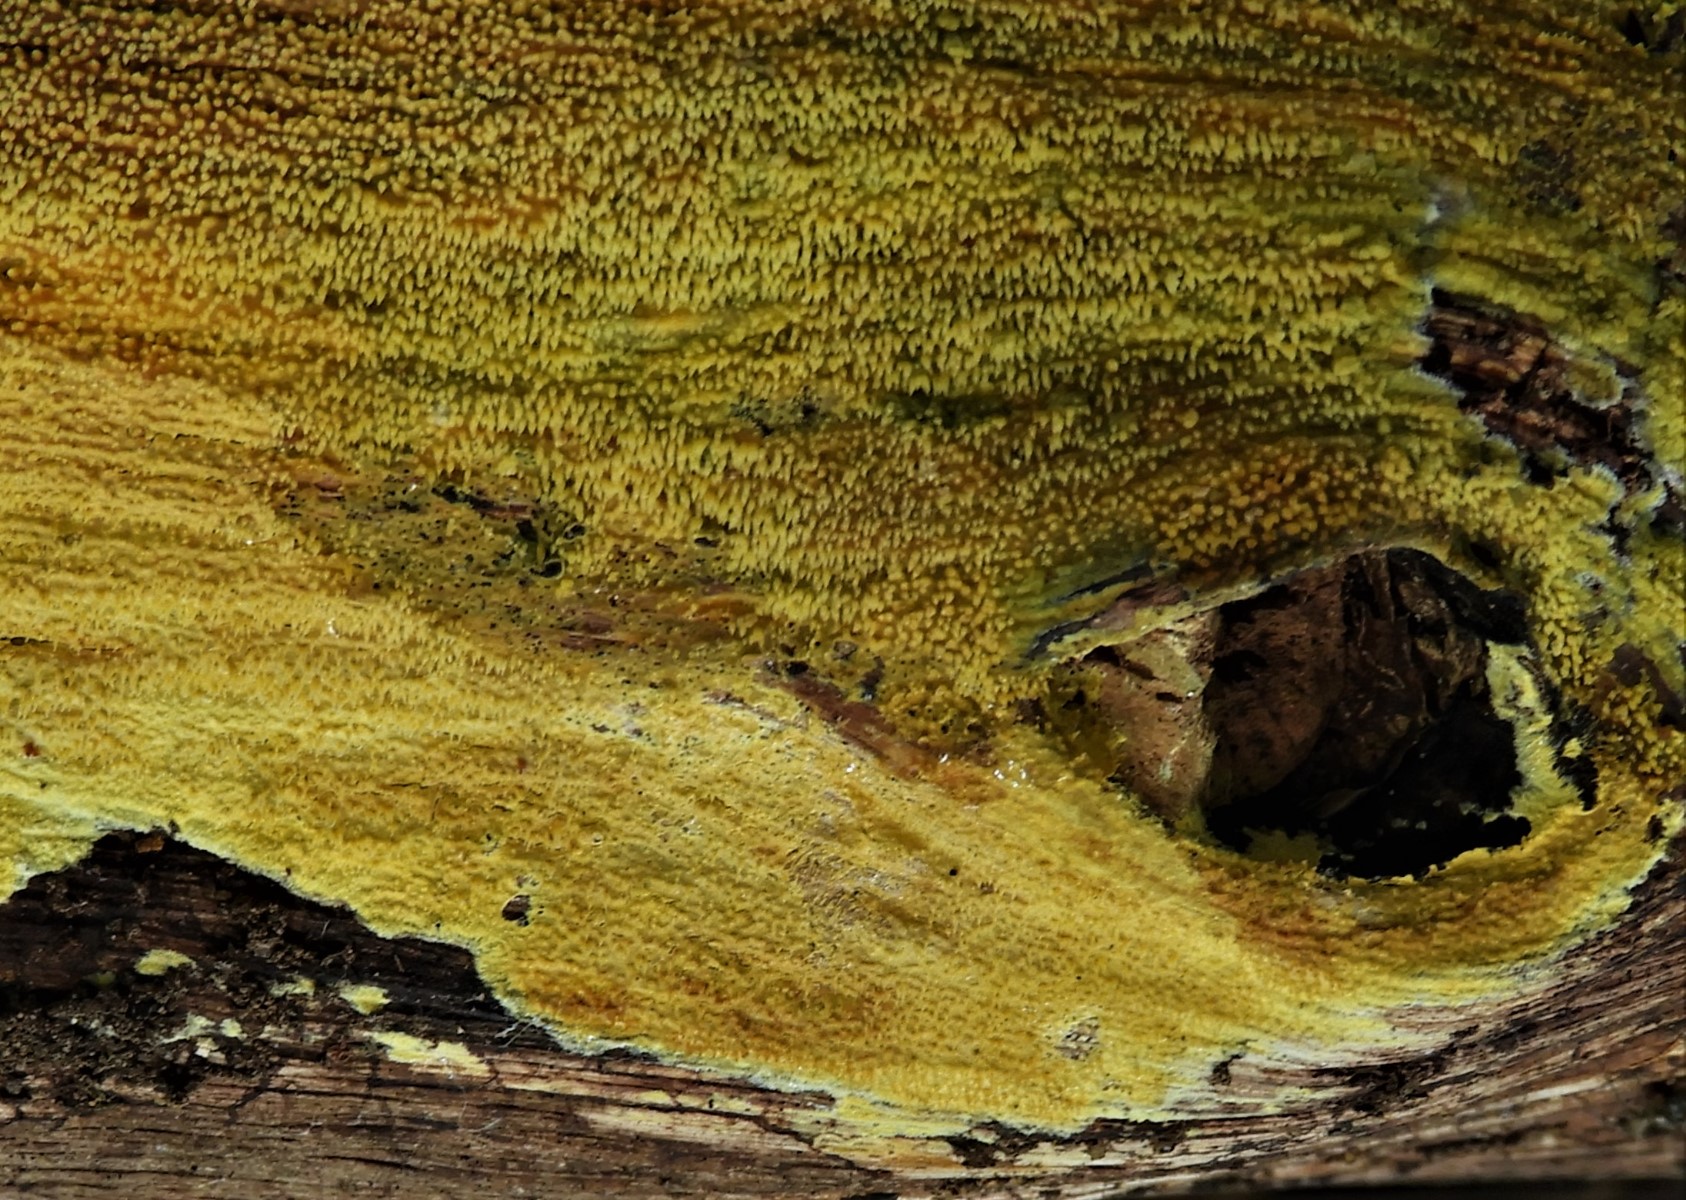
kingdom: Fungi
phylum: Basidiomycota
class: Agaricomycetes
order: Polyporales
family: Meruliaceae
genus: Mycoacia
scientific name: Mycoacia
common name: vokspig
